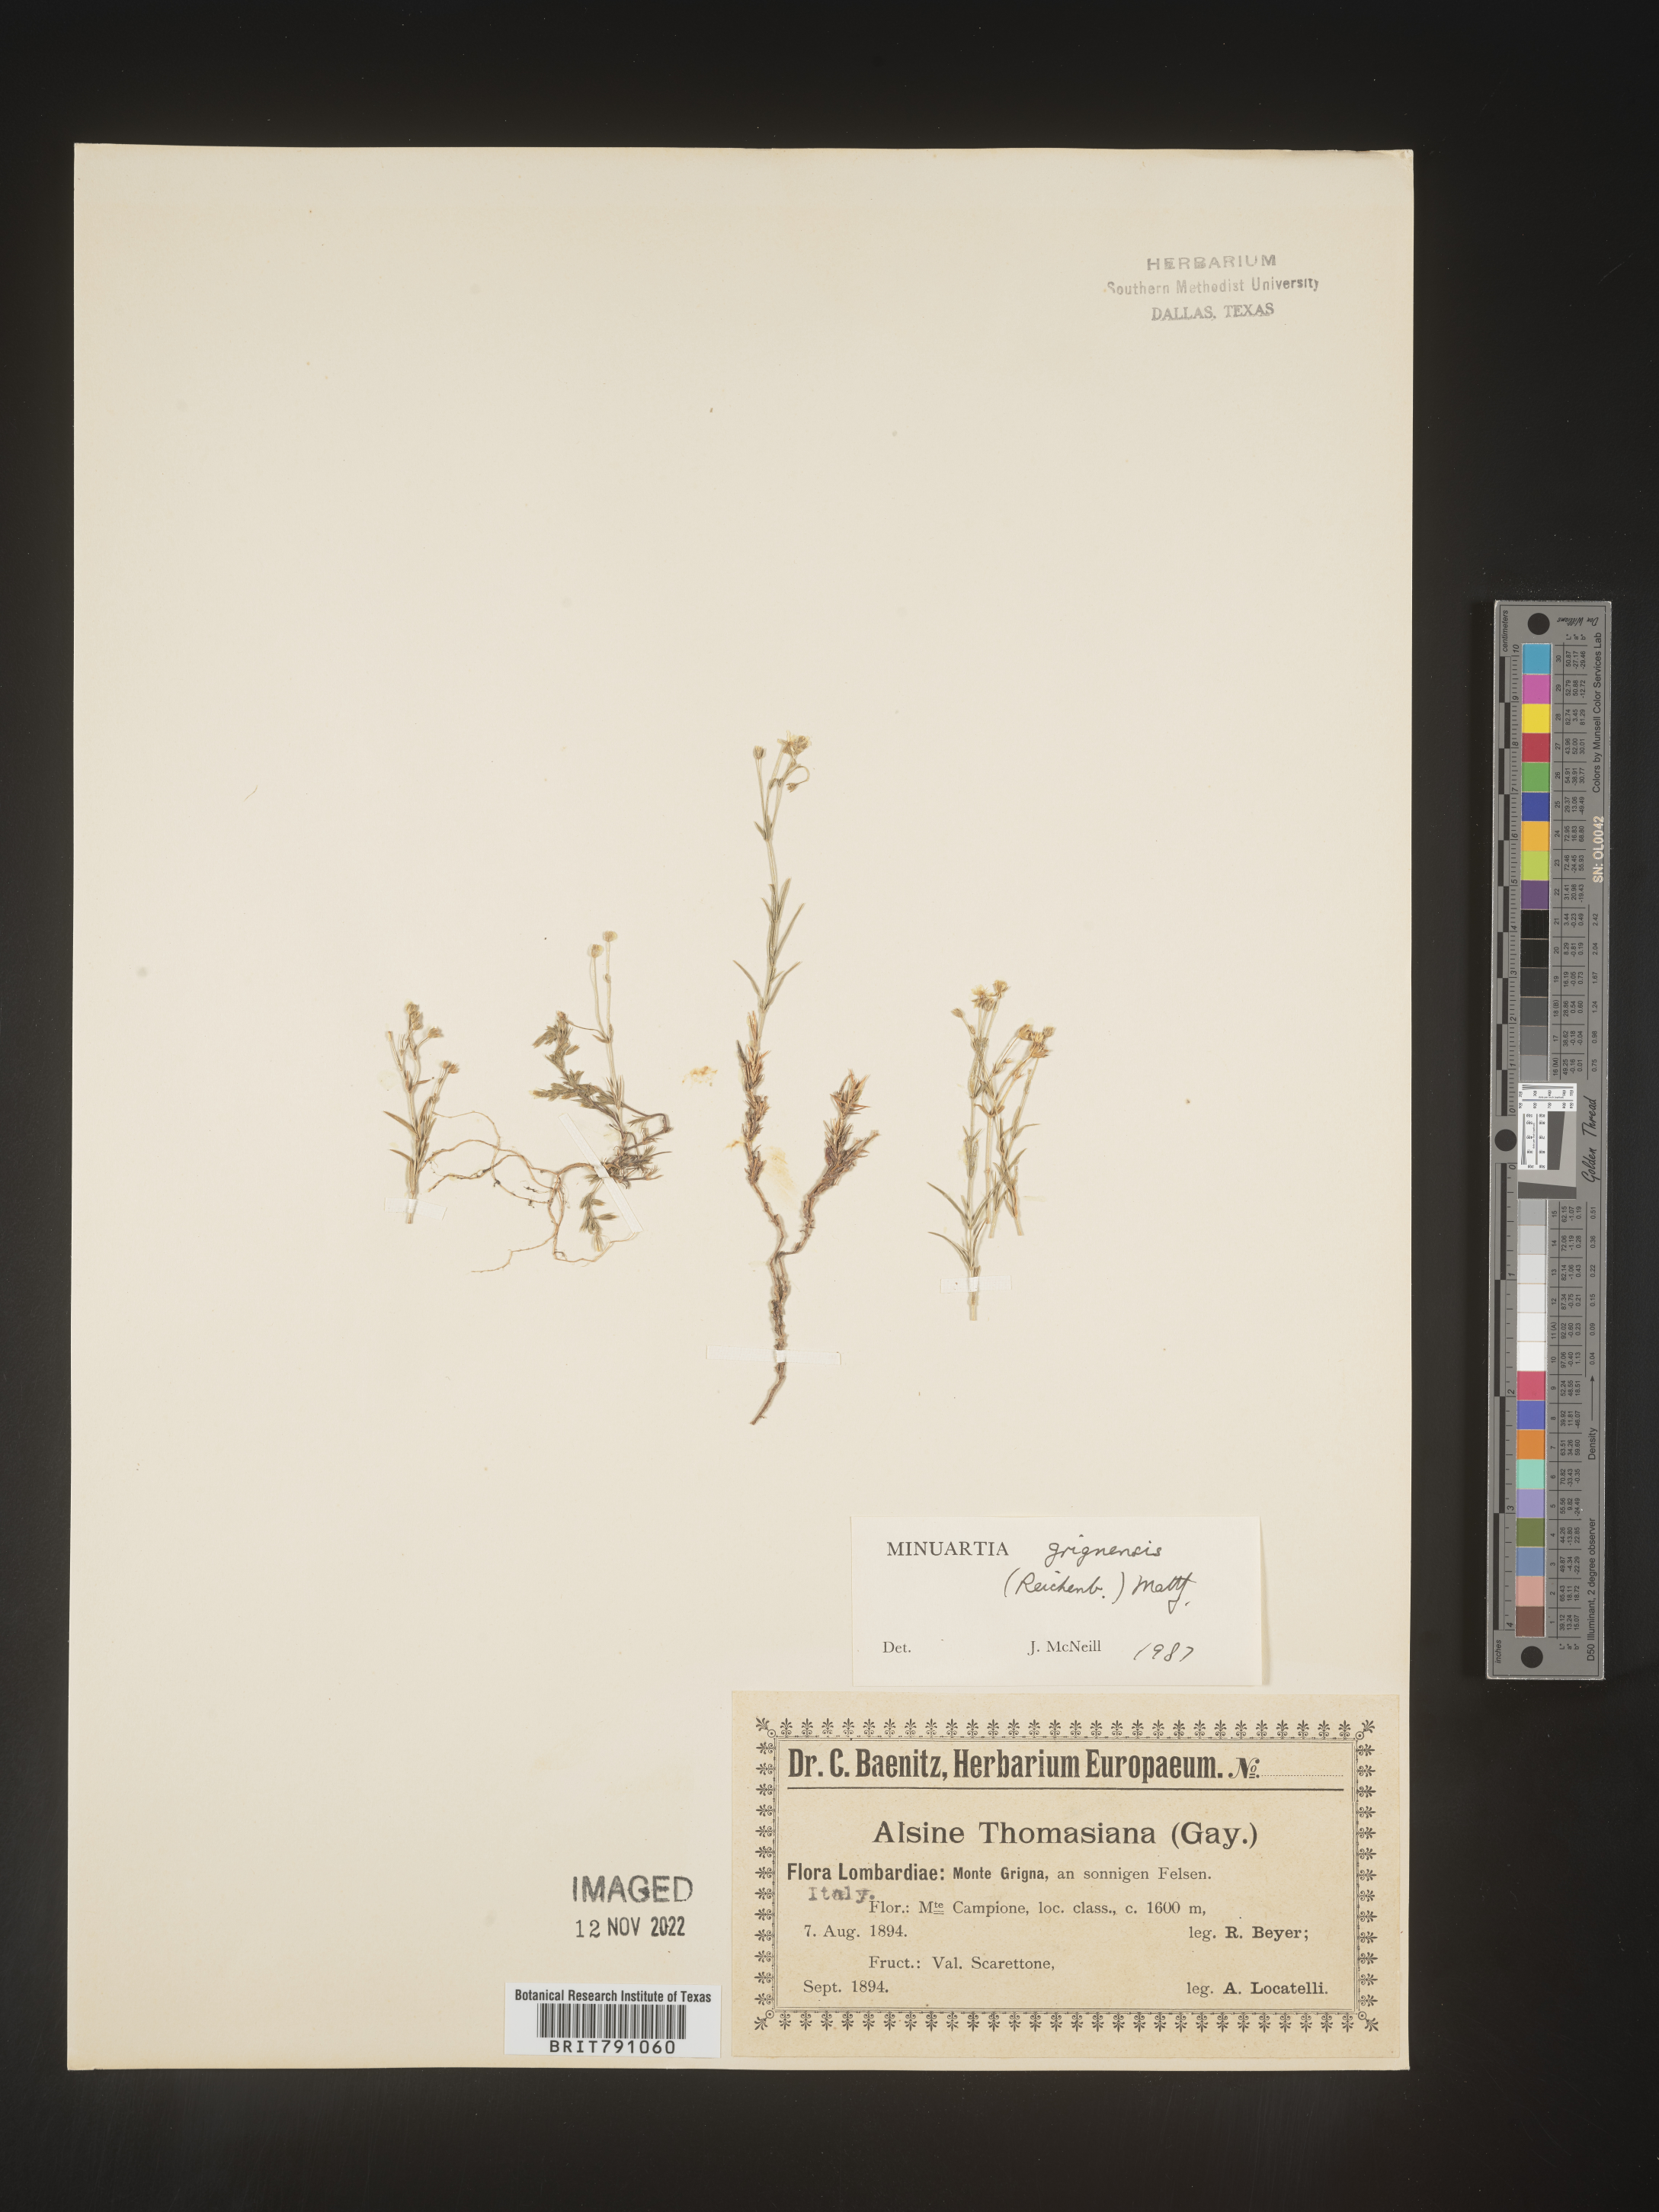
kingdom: Plantae
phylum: Tracheophyta
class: Magnoliopsida
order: Caryophyllales
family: Caryophyllaceae
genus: Minuartia
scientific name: Minuartia
